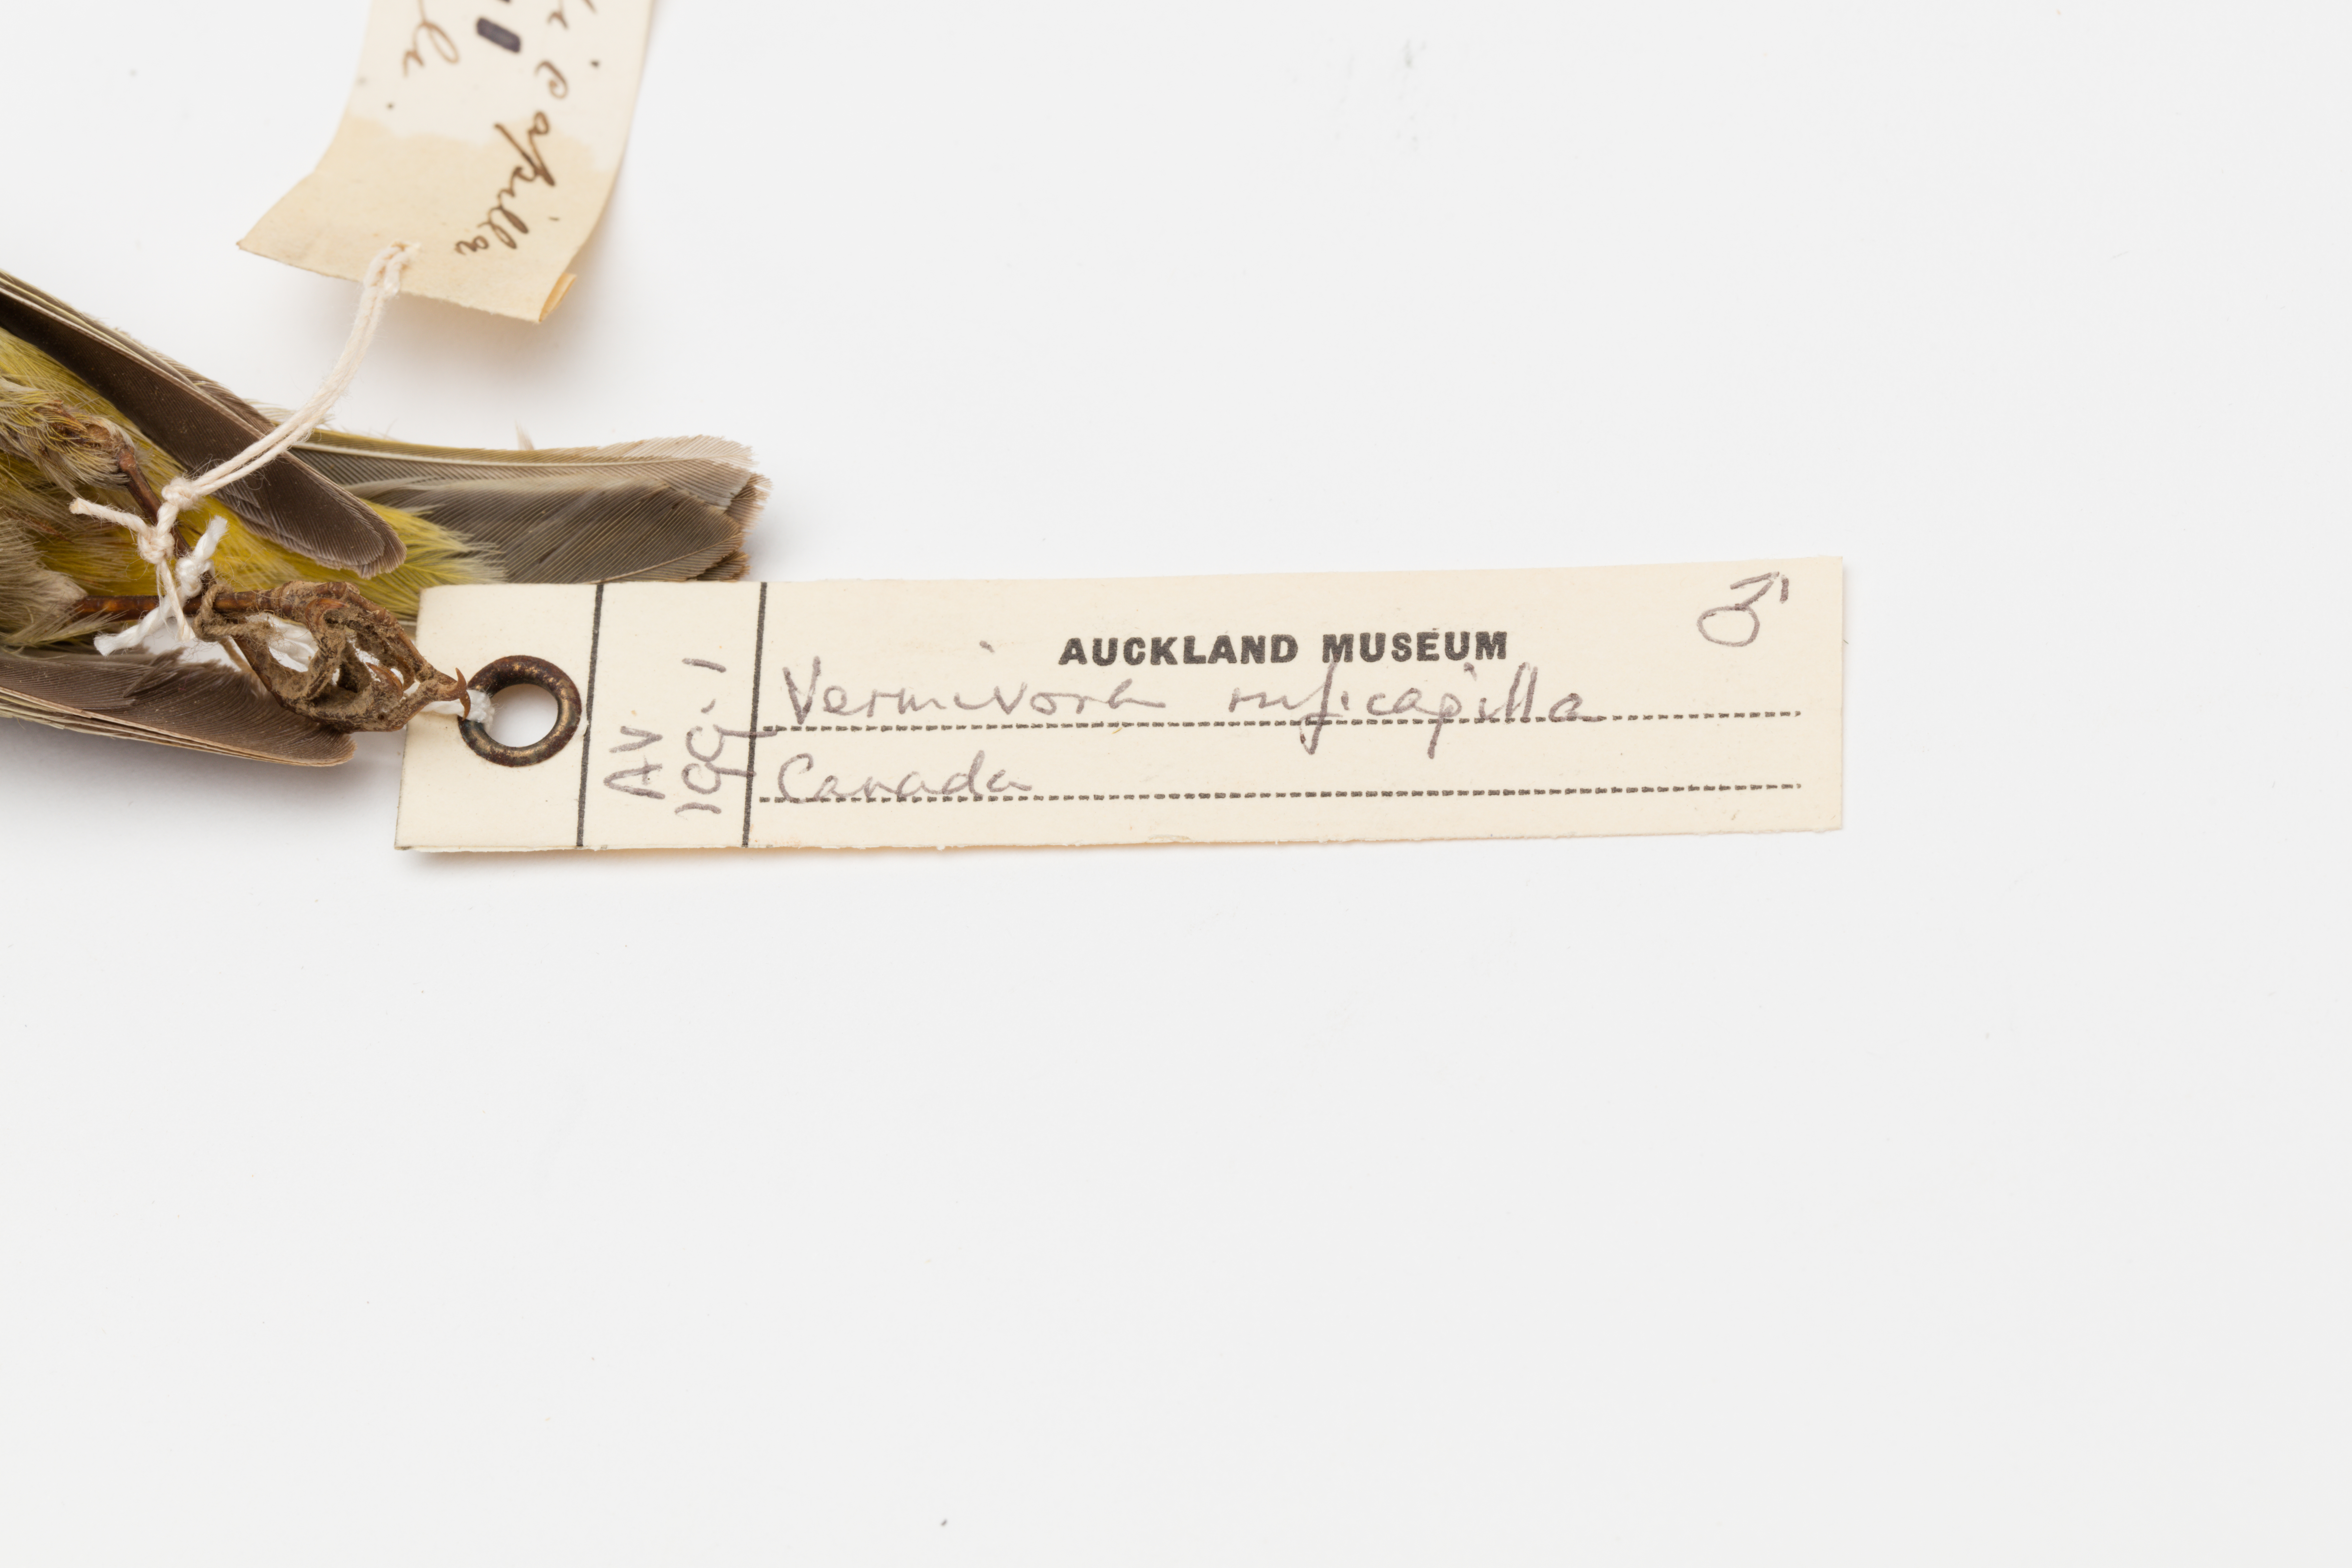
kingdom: Animalia
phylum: Chordata
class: Aves
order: Passeriformes
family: Parulidae
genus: Leiothlypis
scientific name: Leiothlypis ruficapilla
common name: Nashville warbler
